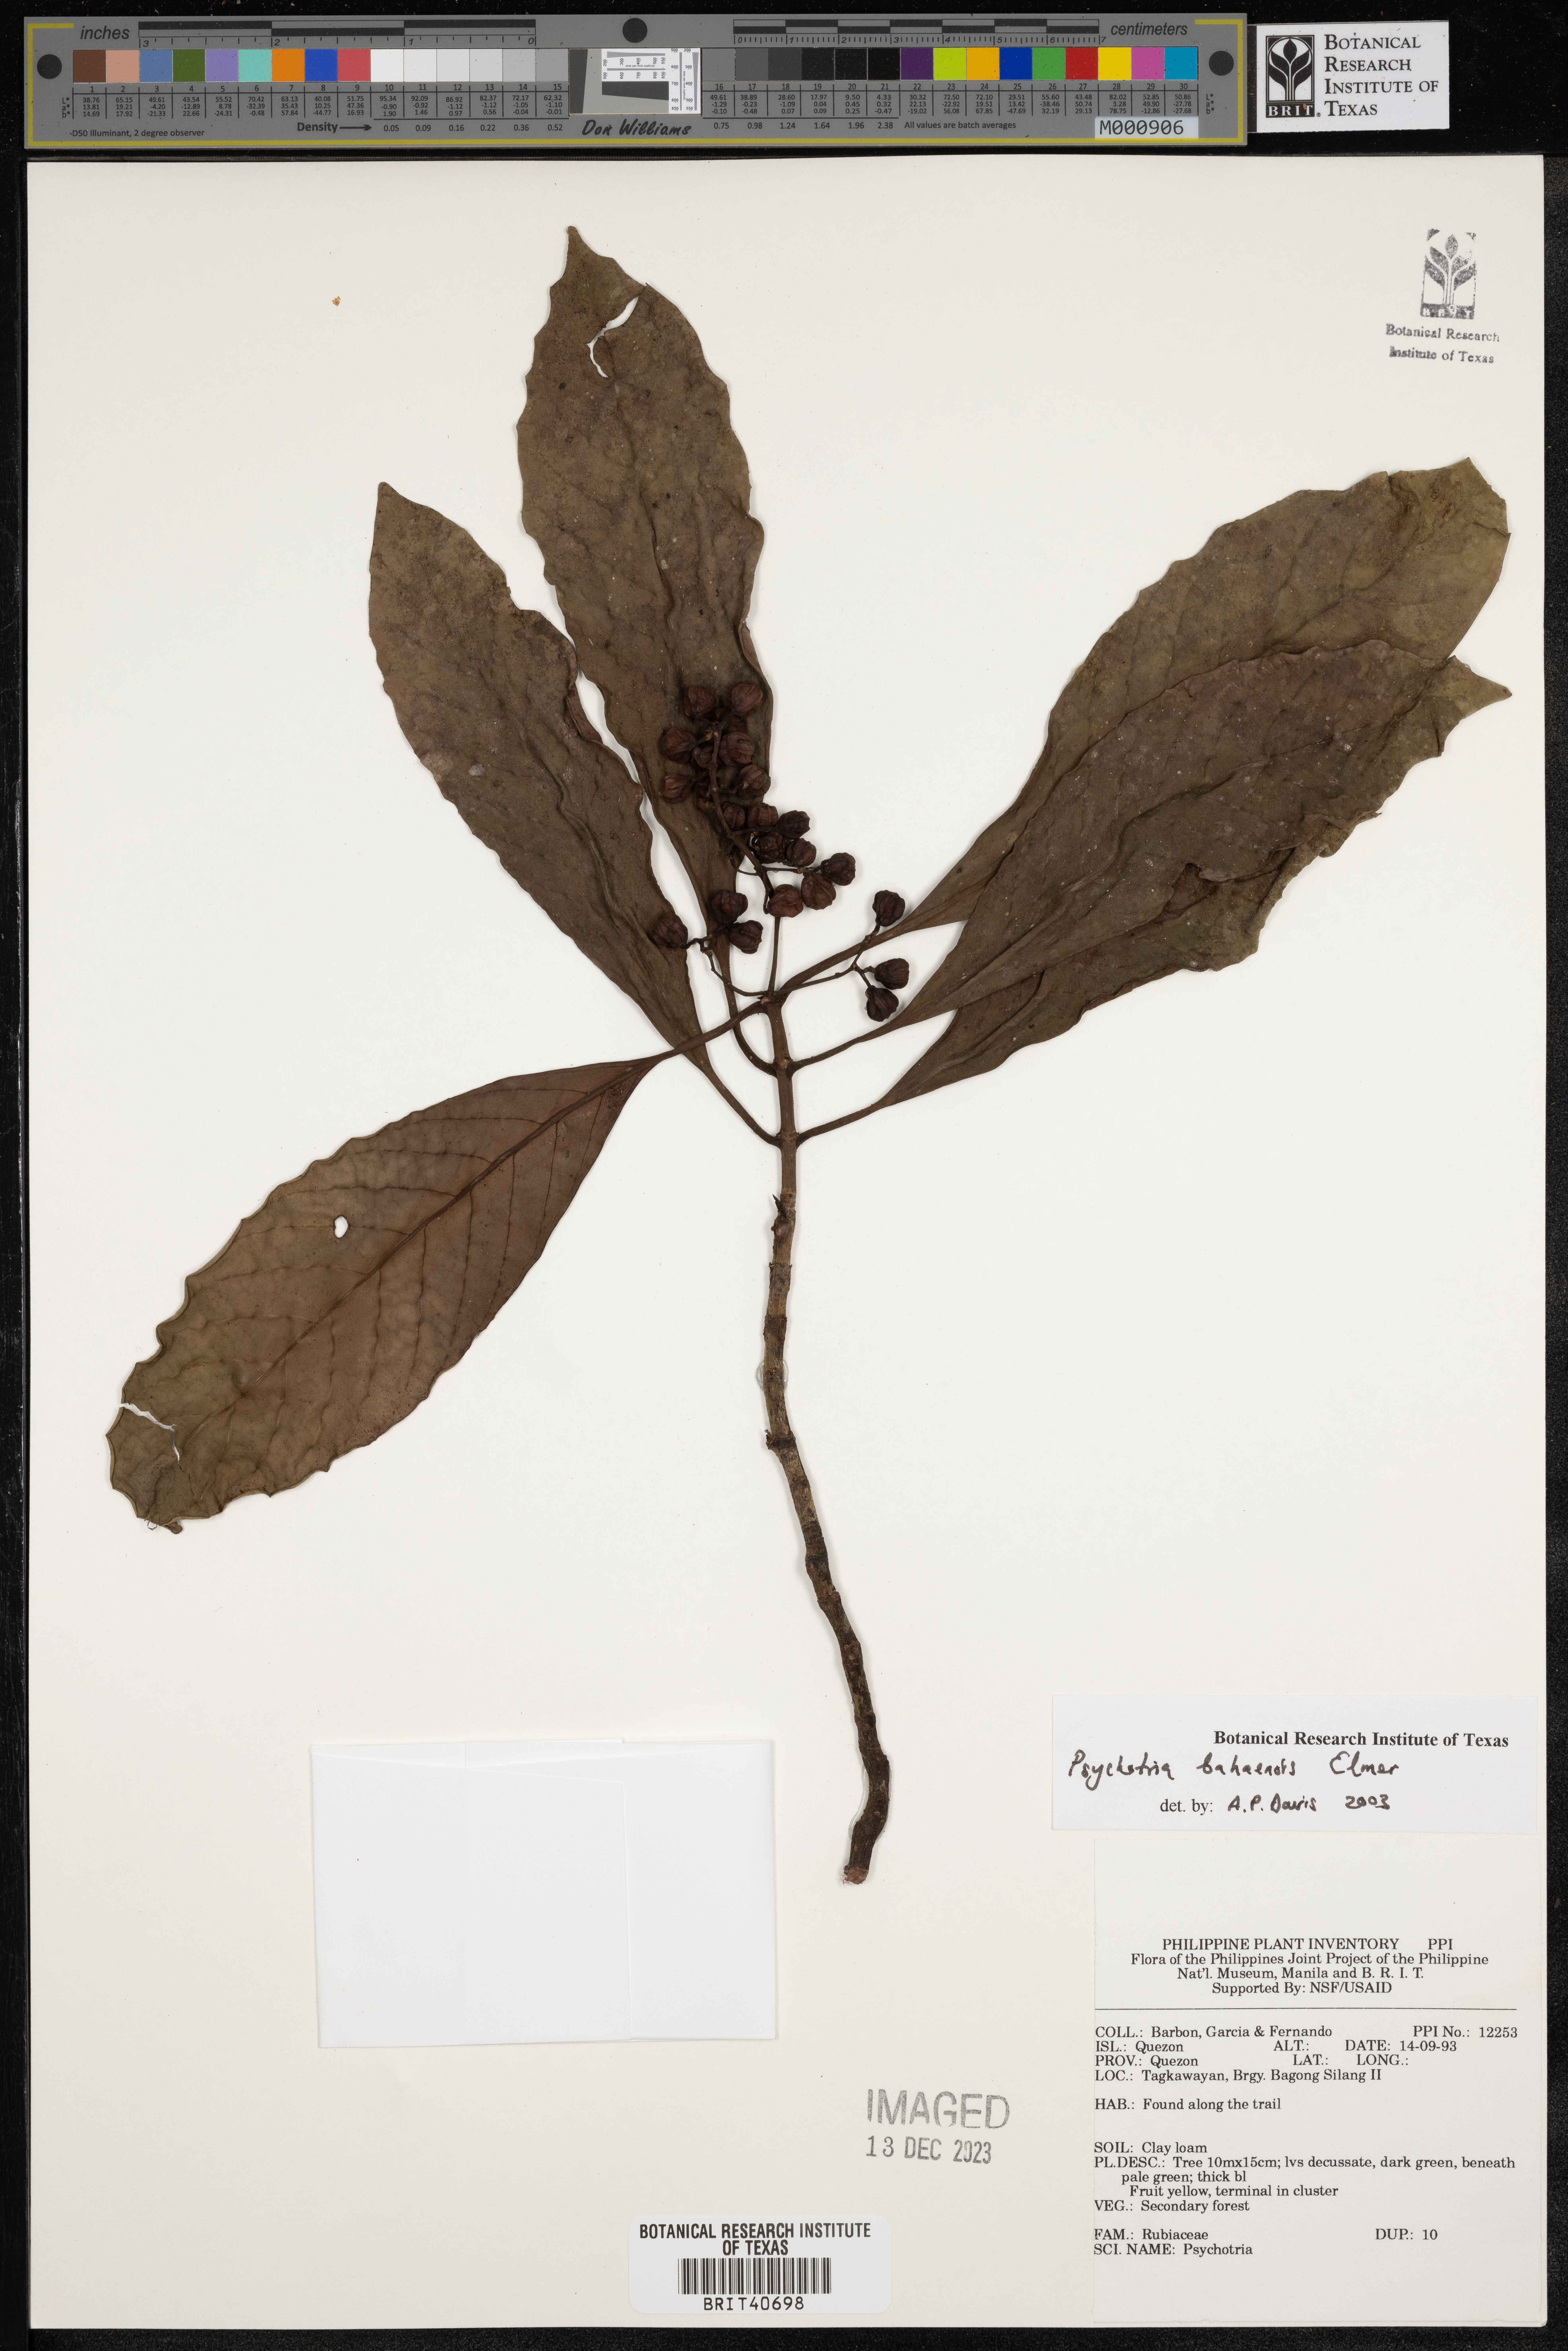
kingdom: Plantae
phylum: Tracheophyta
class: Magnoliopsida
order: Gentianales
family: Rubiaceae
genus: Psychotria
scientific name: Psychotria banahaensis
